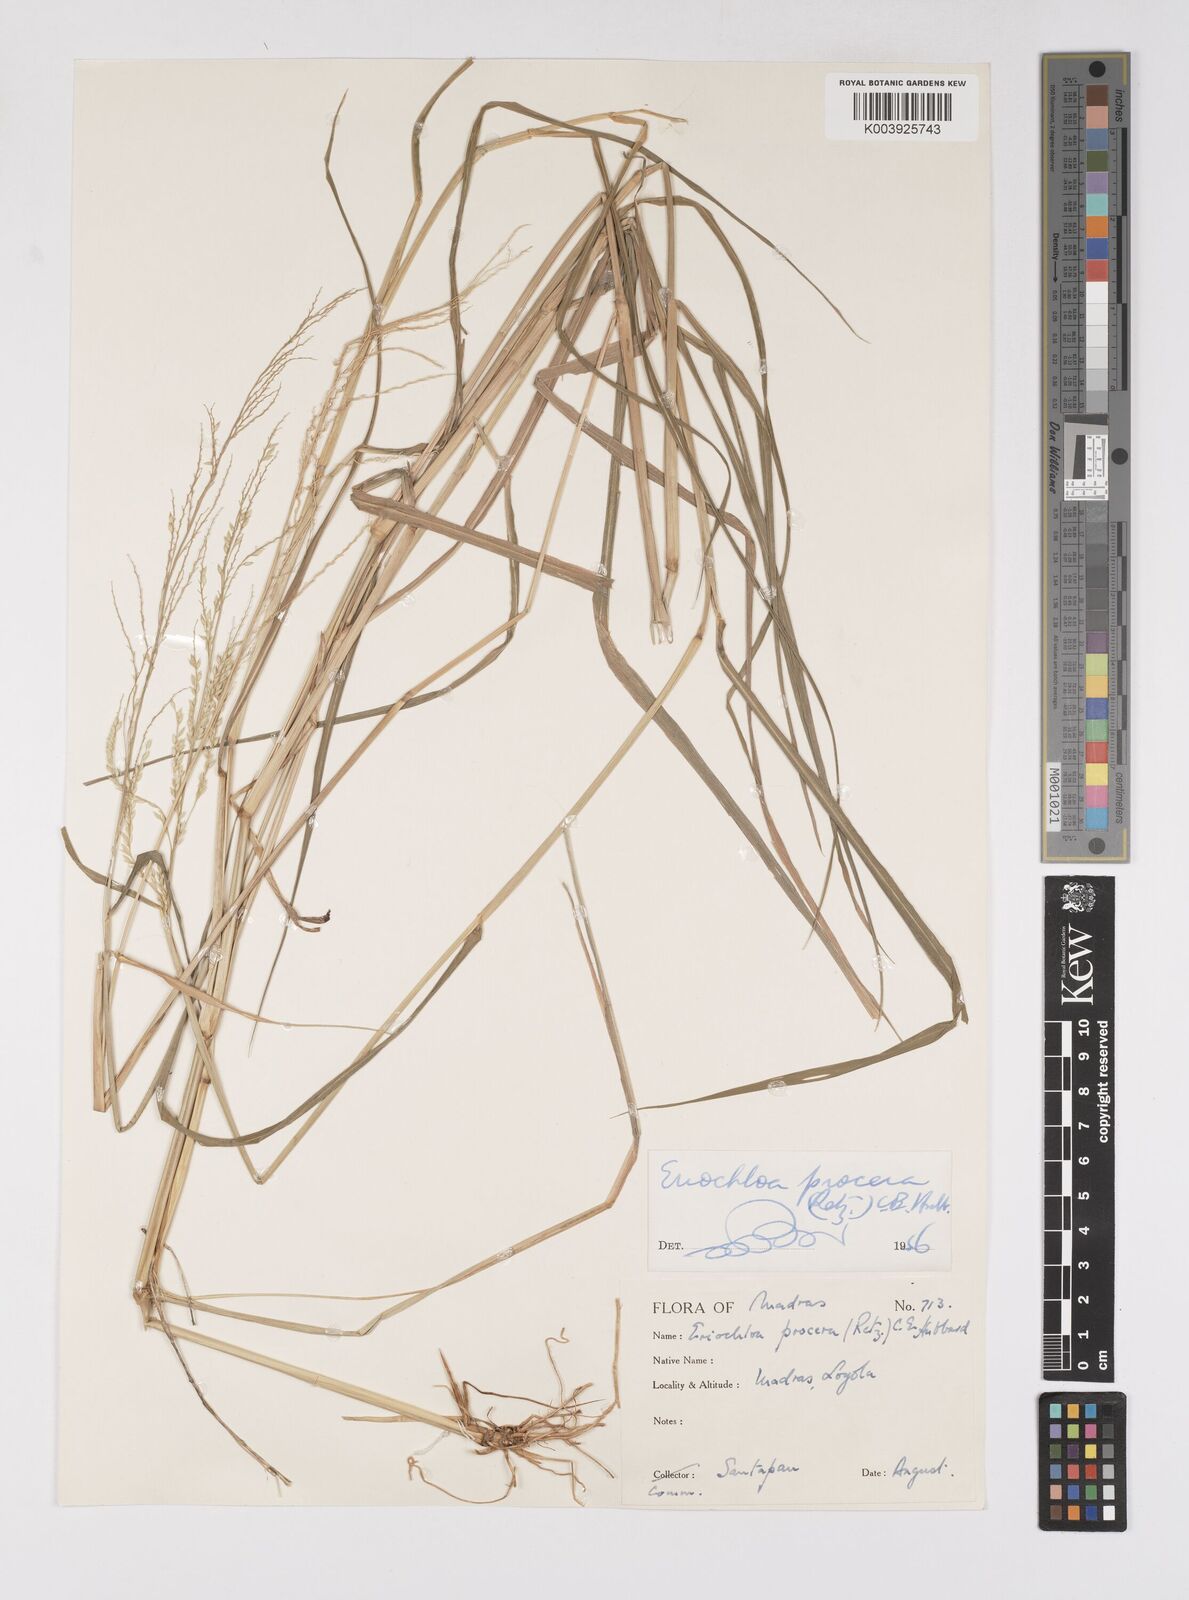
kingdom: Plantae
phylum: Tracheophyta
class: Liliopsida
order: Poales
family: Poaceae
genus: Eriochloa
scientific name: Eriochloa procera
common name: Spring grass
